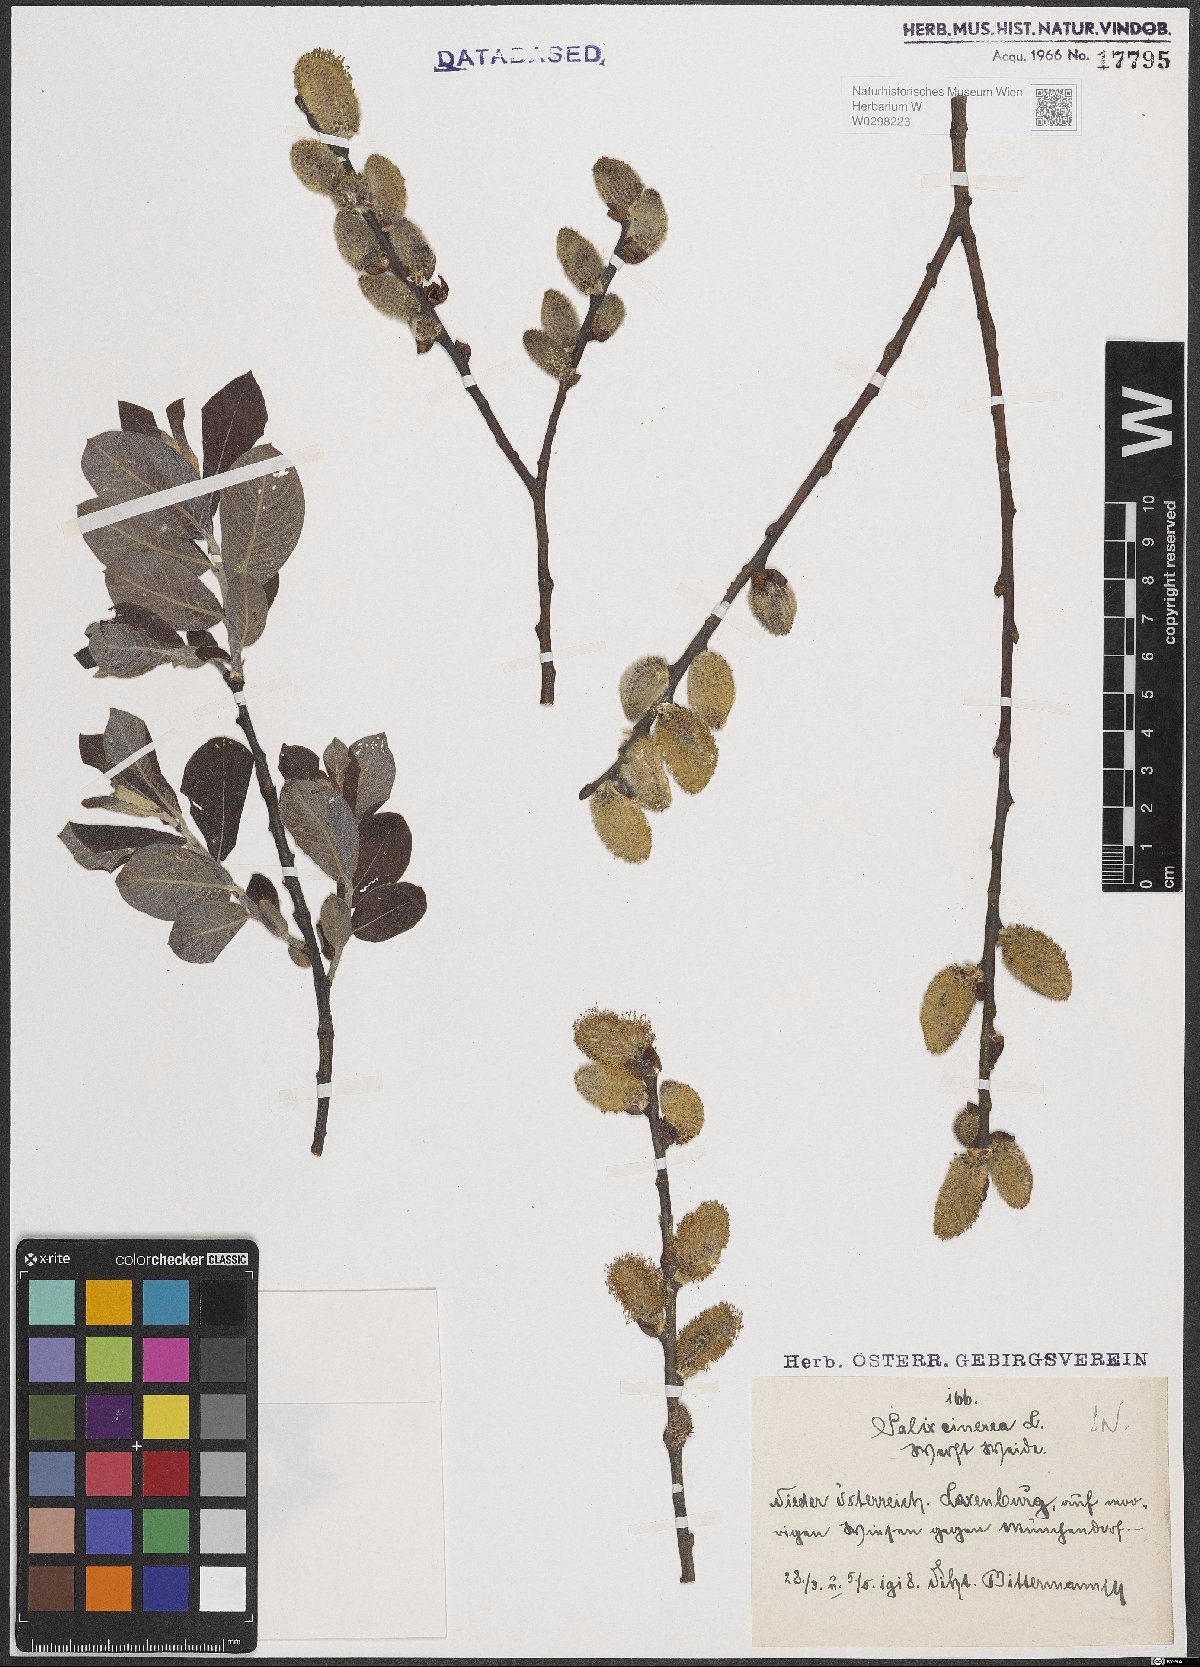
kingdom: Plantae
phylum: Tracheophyta
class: Magnoliopsida
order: Malpighiales
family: Salicaceae
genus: Salix
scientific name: Salix cinerea
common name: Common sallow
